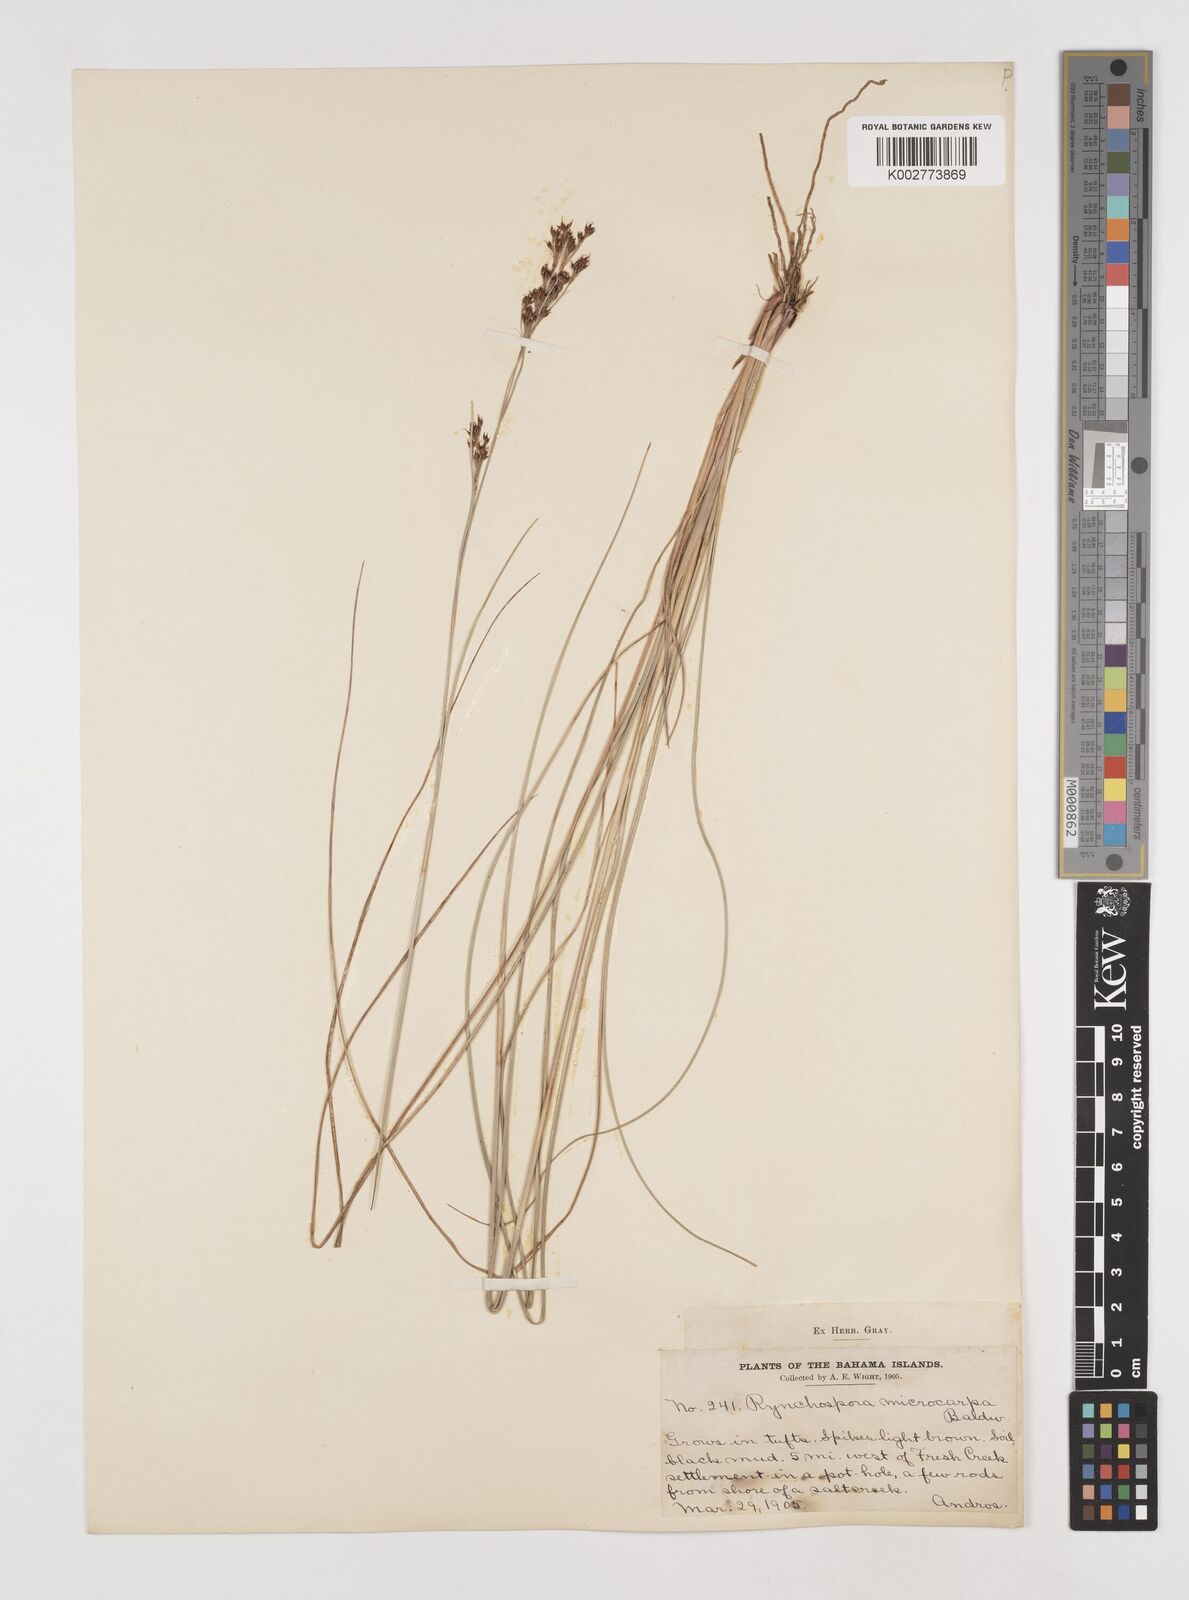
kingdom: Plantae
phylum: Tracheophyta
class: Liliopsida
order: Poales
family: Cyperaceae
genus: Rhynchospora
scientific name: Rhynchospora microcarpa
